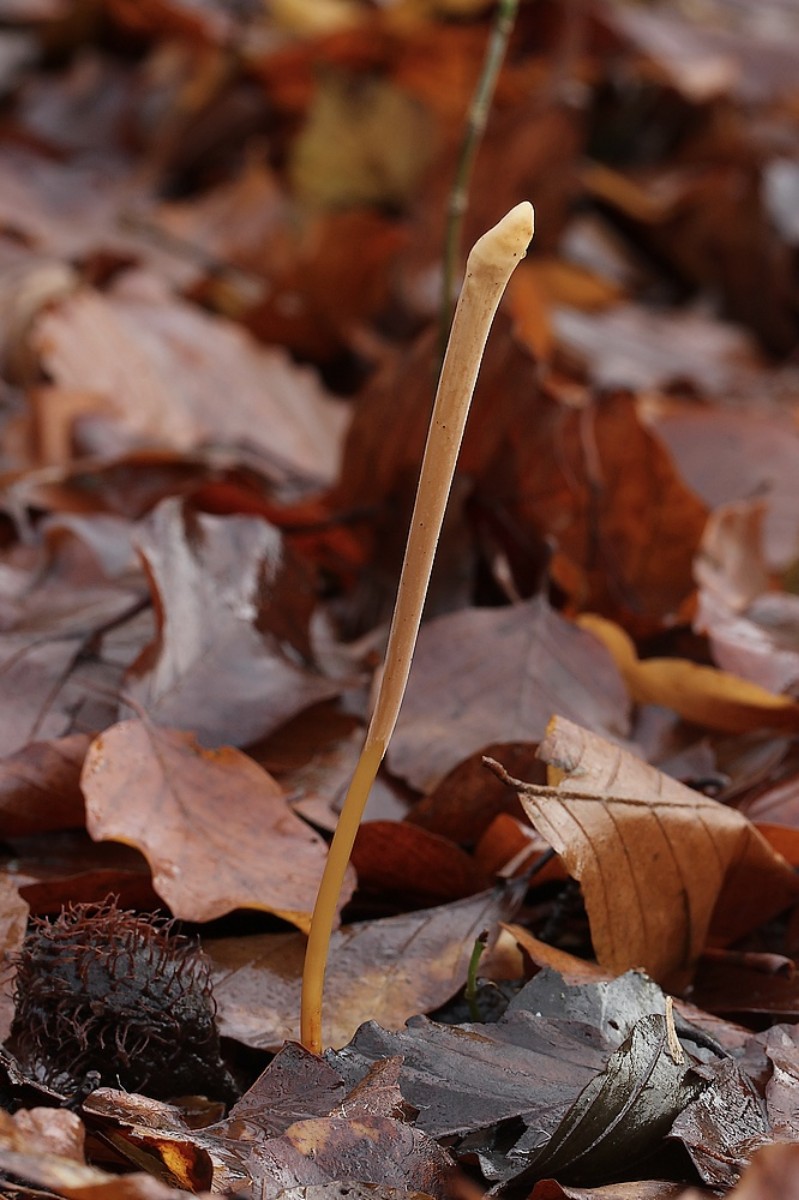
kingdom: Fungi
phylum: Basidiomycota
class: Agaricomycetes
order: Agaricales
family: Typhulaceae
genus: Typhula
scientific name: Typhula fistulosa
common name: pibet rørkølle
